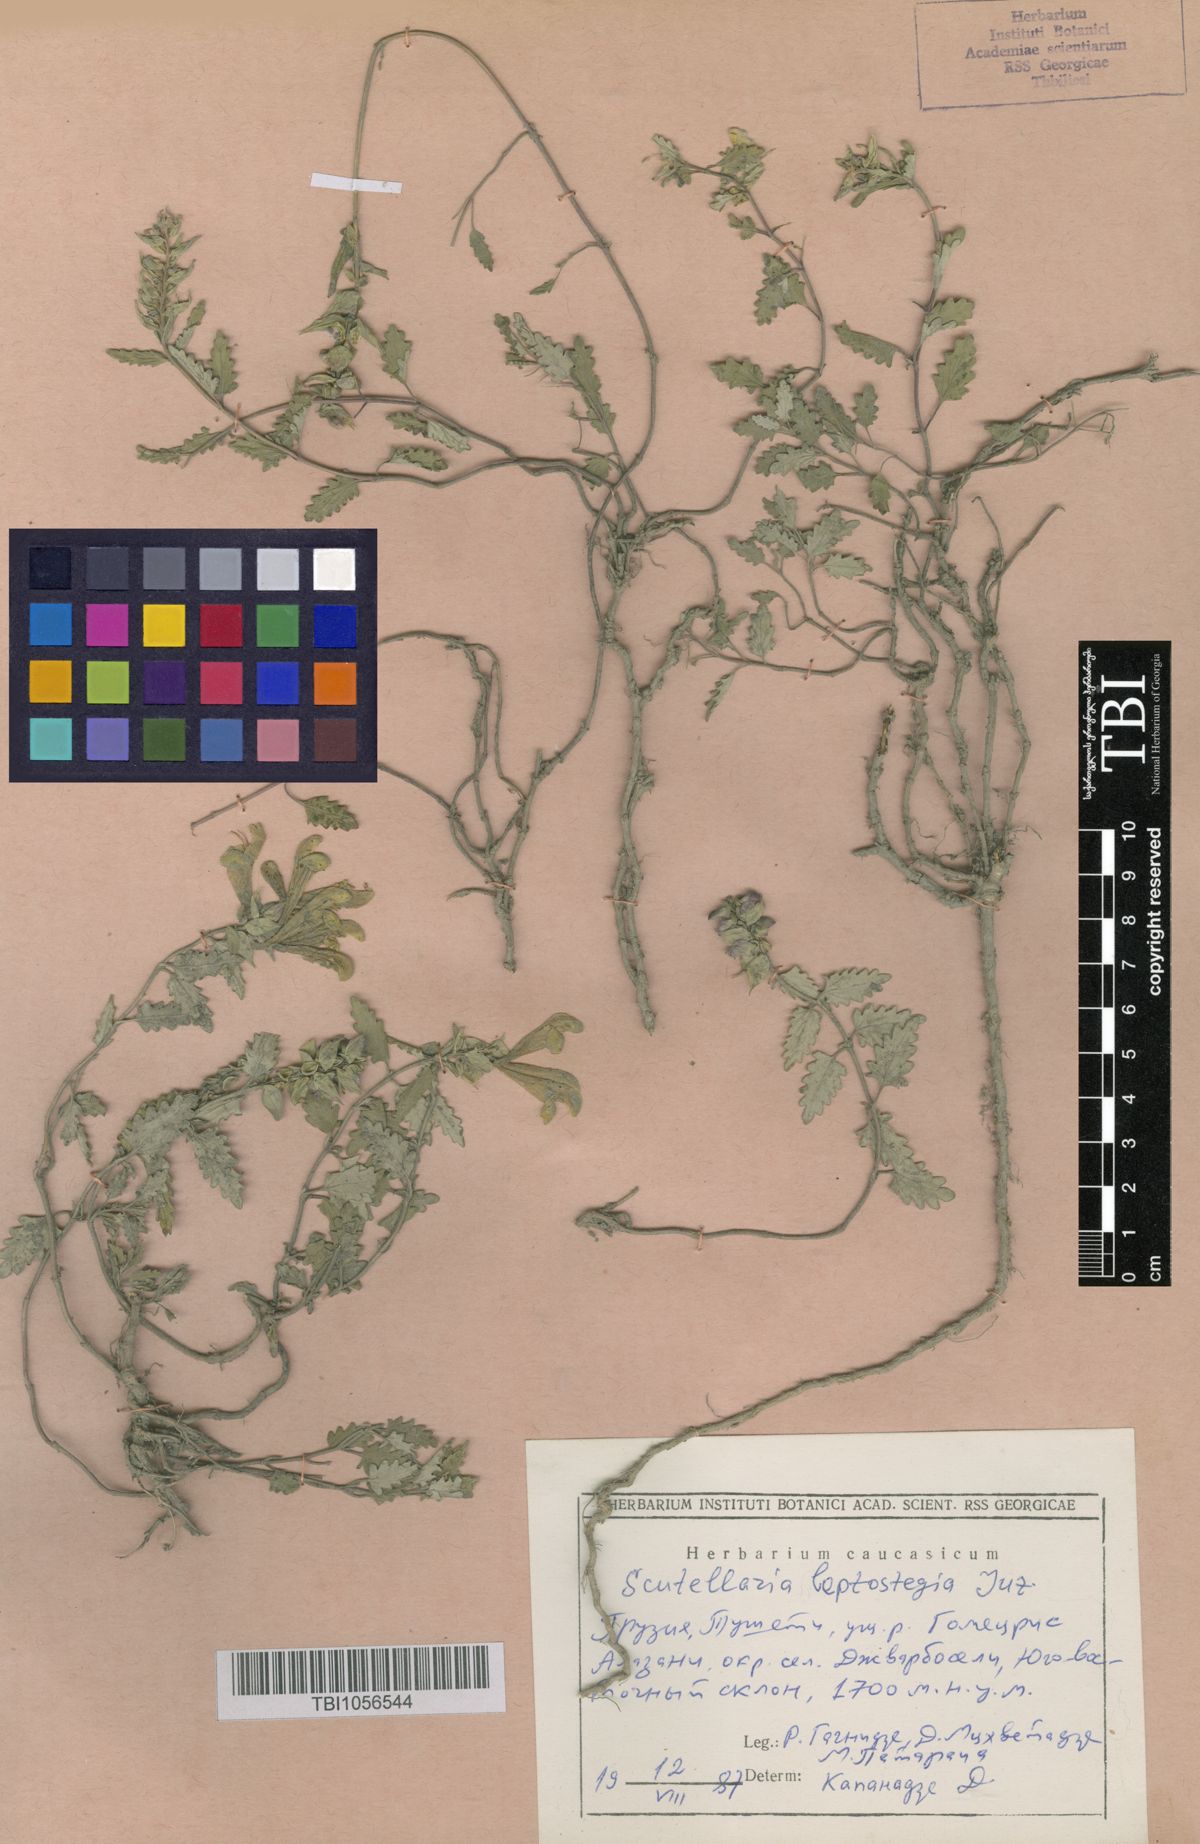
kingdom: Plantae
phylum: Tracheophyta
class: Magnoliopsida
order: Lamiales
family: Lamiaceae
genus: Scutellaria
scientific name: Scutellaria leptostegia
